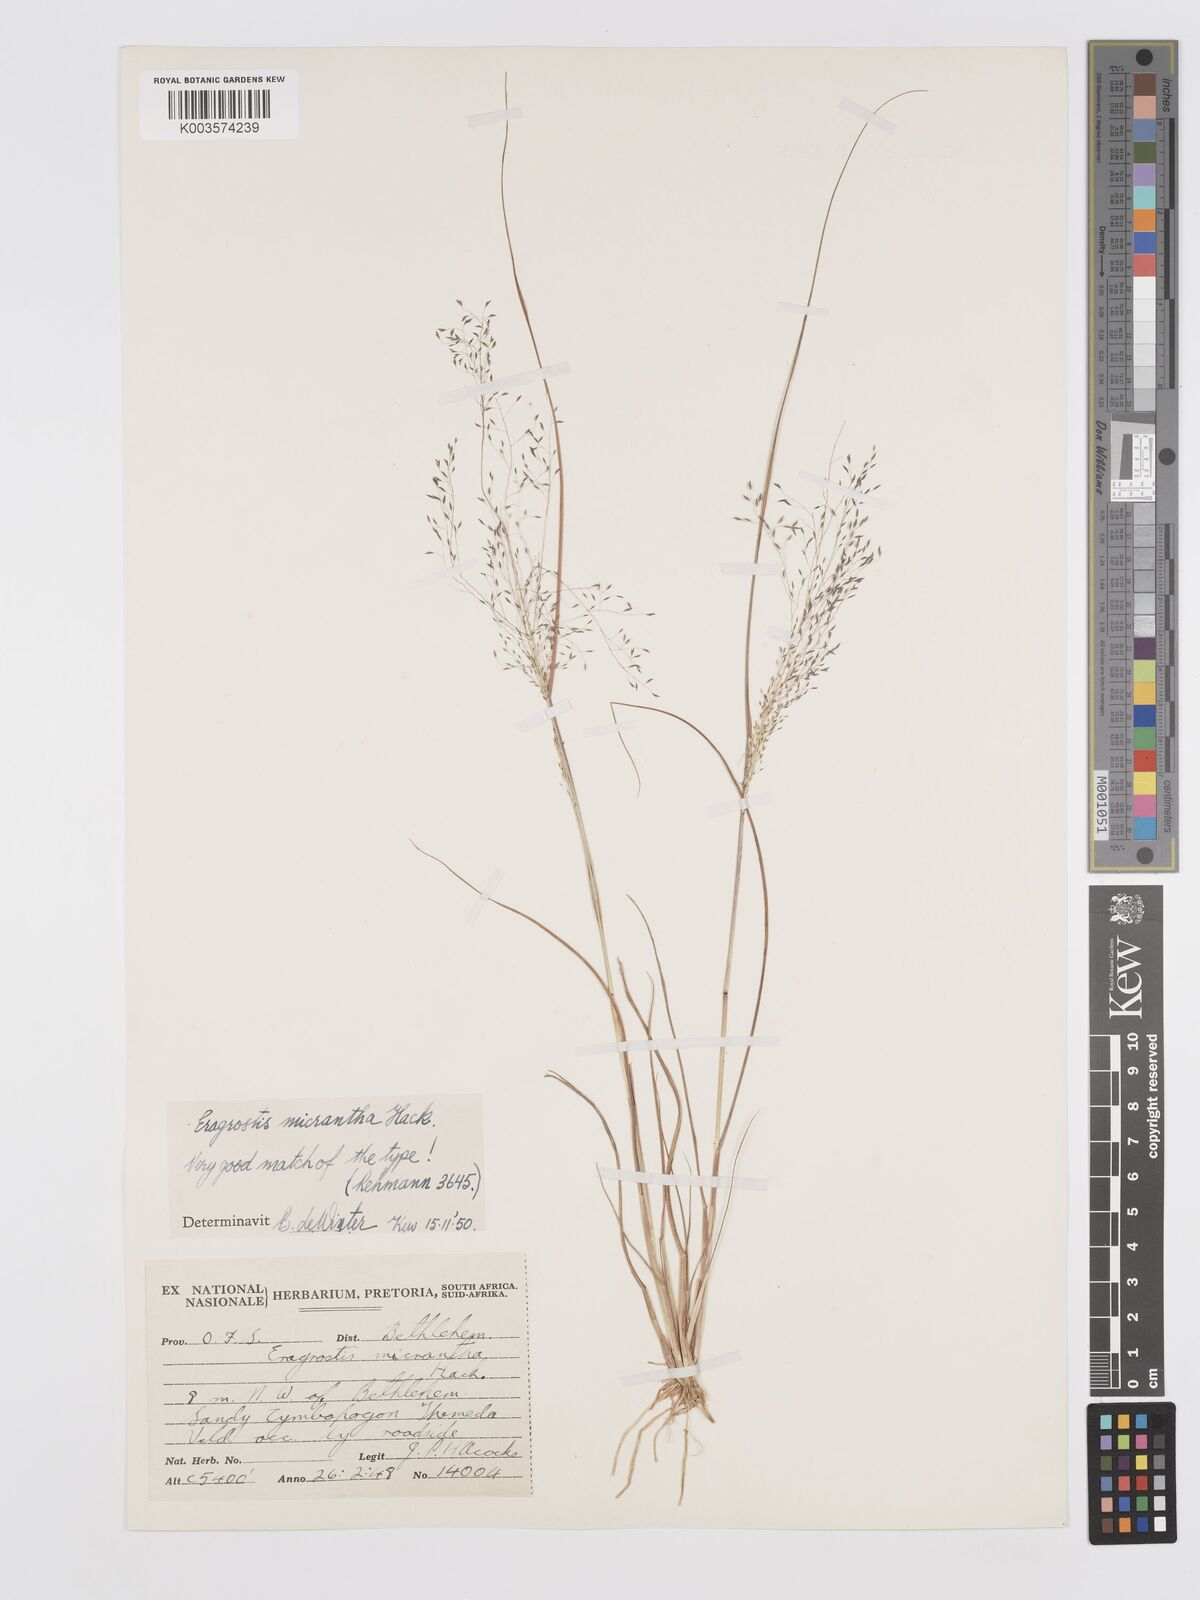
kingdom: Plantae
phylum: Tracheophyta
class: Liliopsida
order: Poales
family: Poaceae
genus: Eragrostis
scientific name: Eragrostis micrantha
